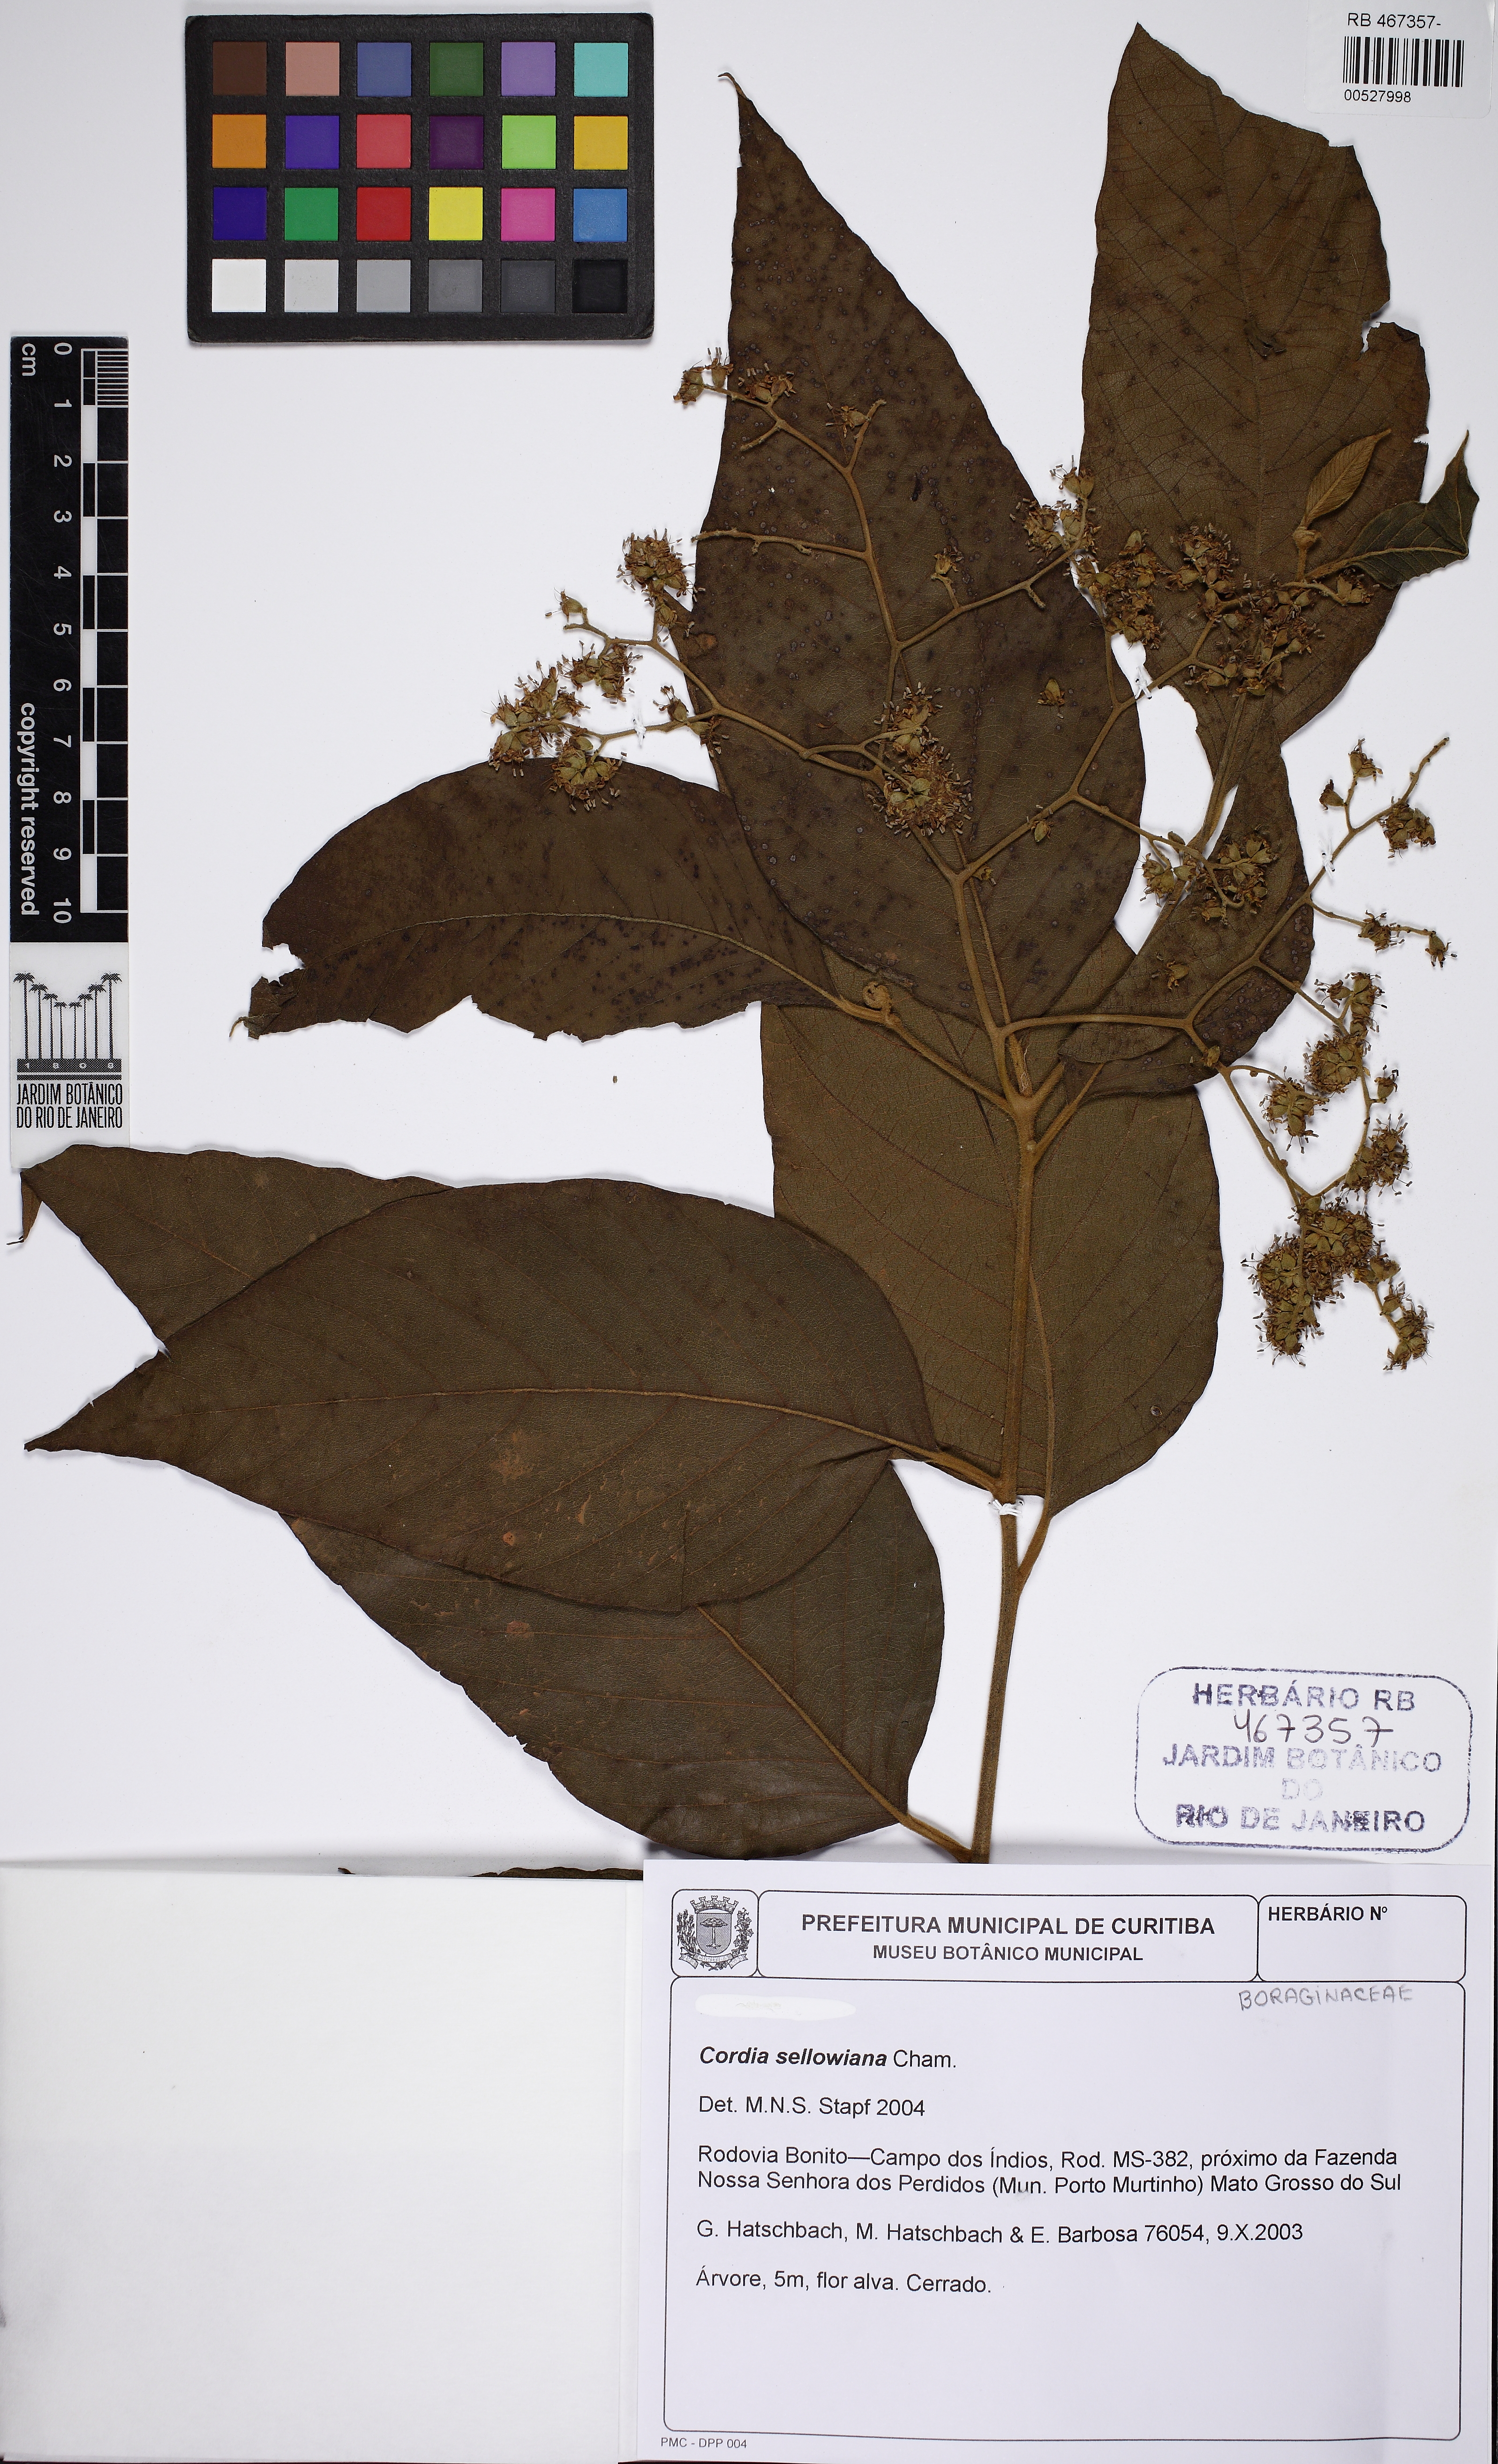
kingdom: Plantae
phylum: Tracheophyta
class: Magnoliopsida
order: Boraginales
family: Cordiaceae
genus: Cordia
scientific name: Cordia sellowiana
